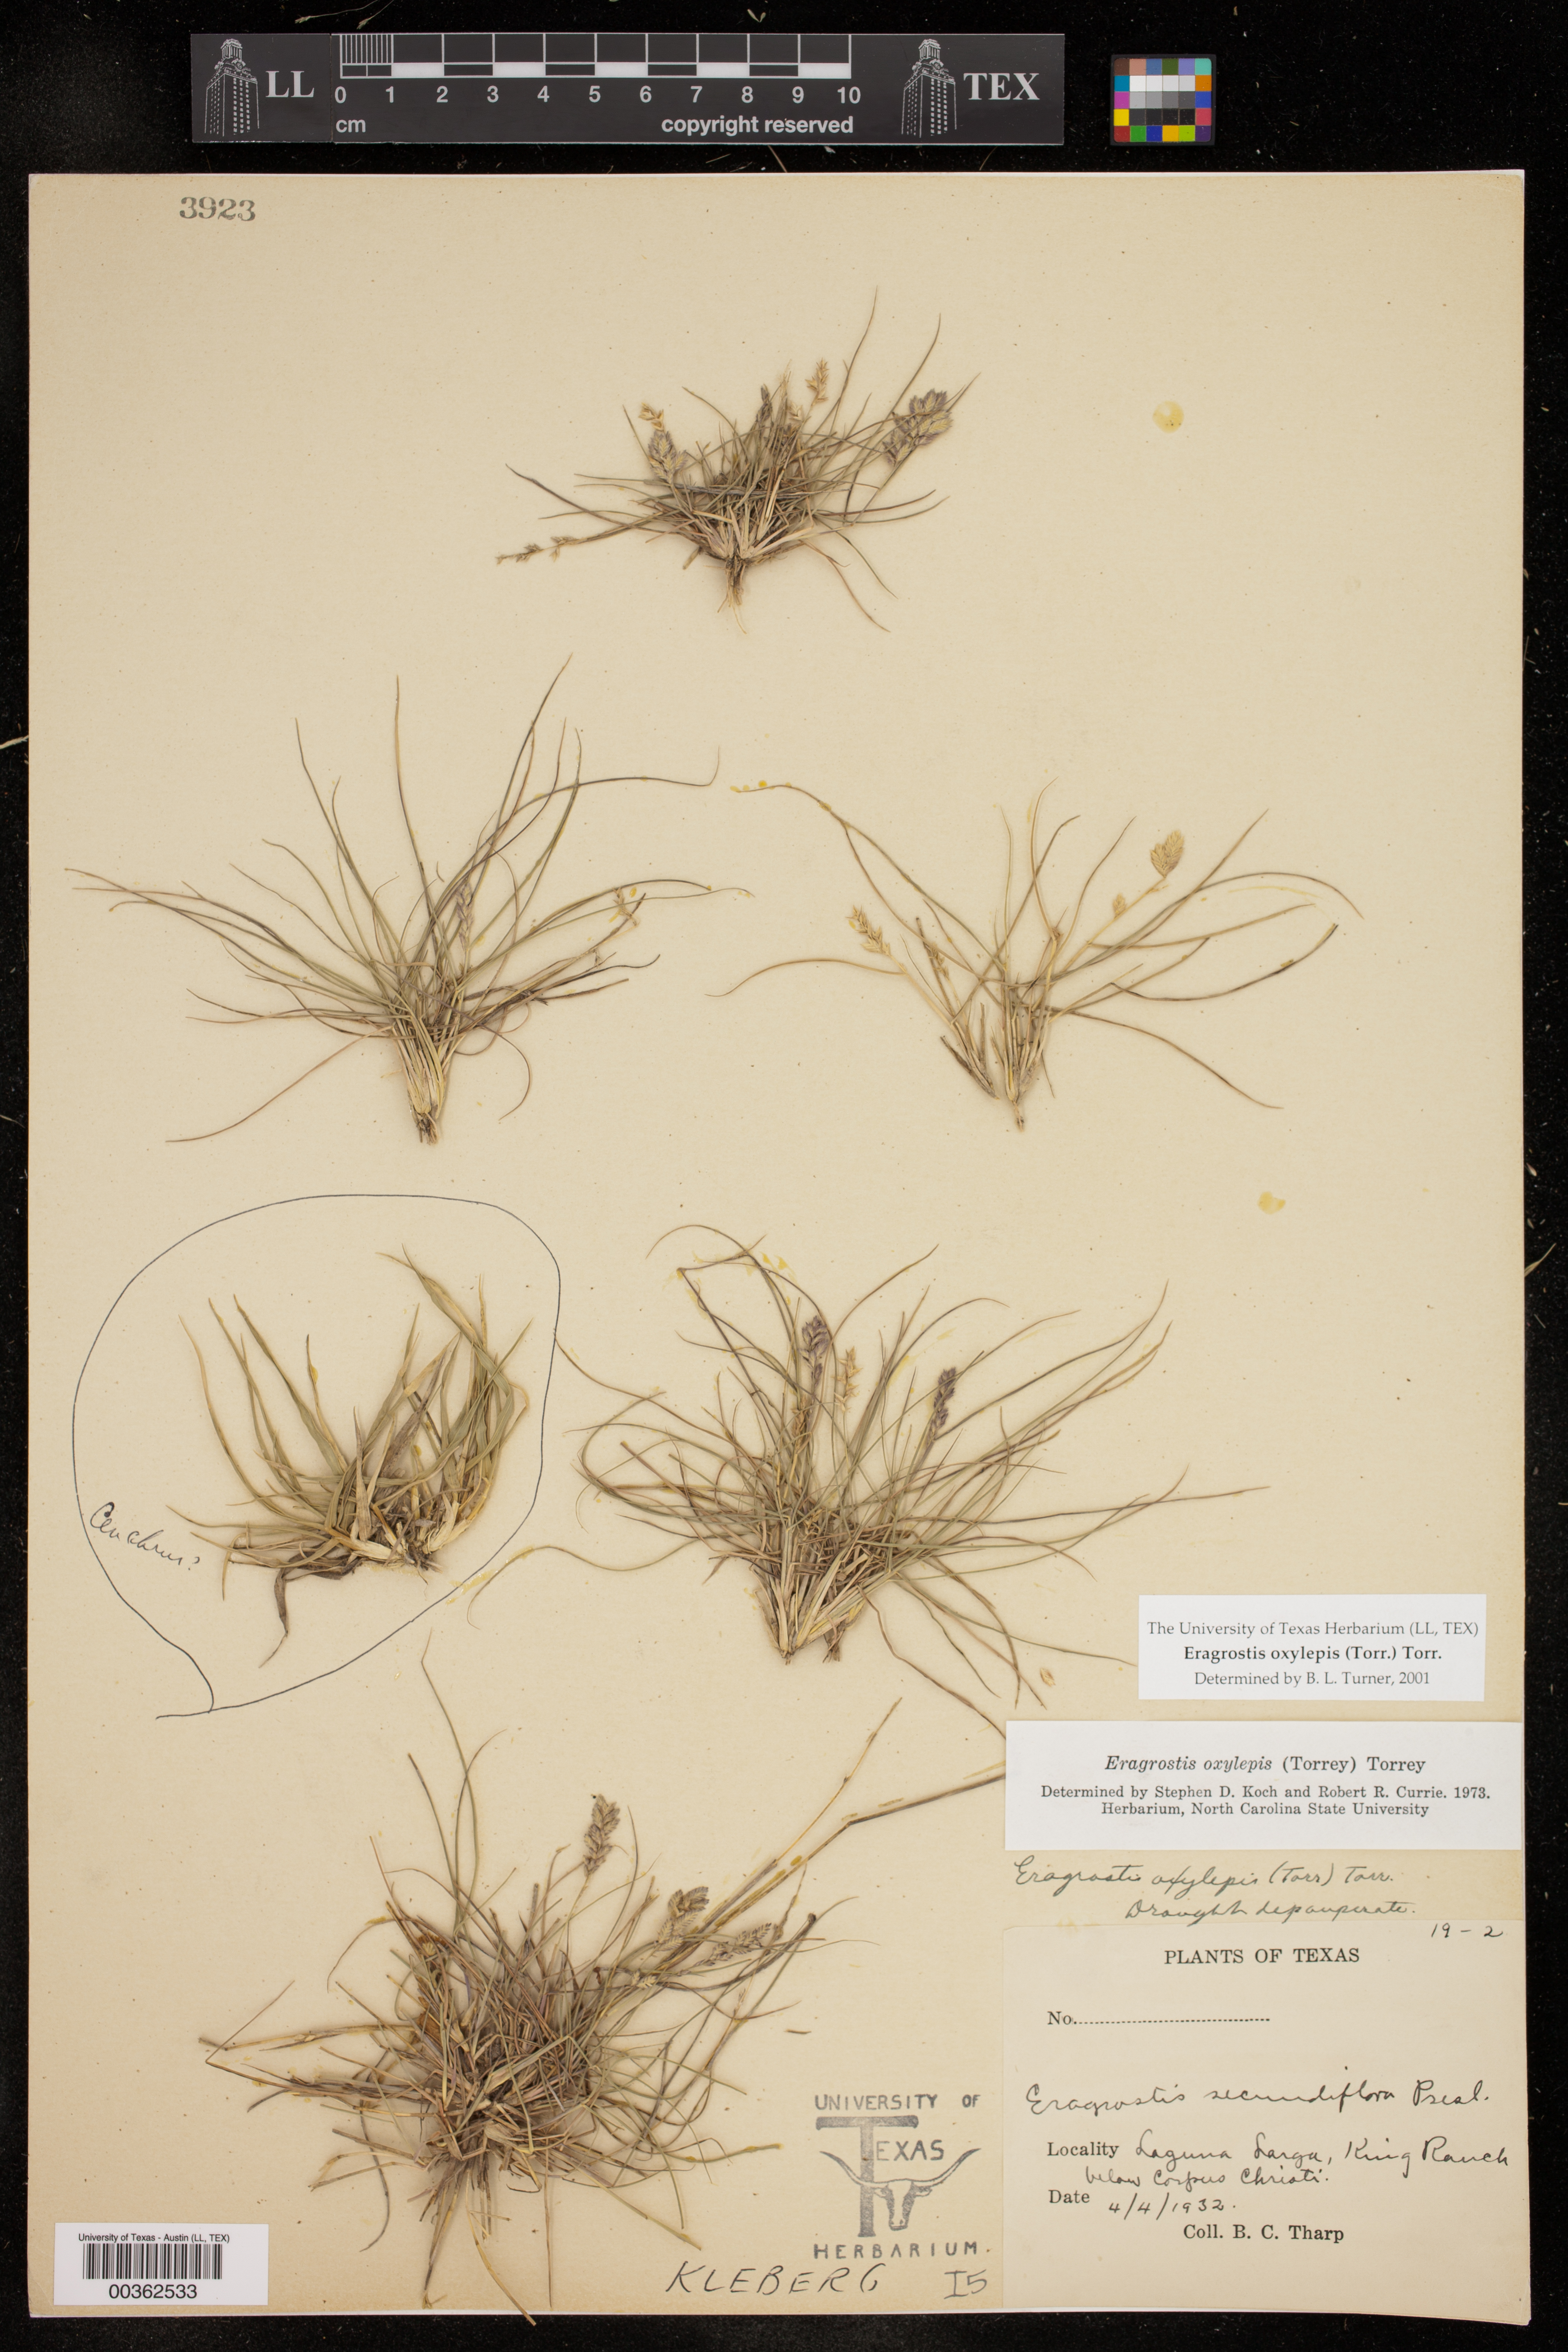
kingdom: Plantae
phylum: Tracheophyta
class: Liliopsida
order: Poales
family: Poaceae
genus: Eragrostis
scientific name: Eragrostis secundiflora
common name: Red love grass
